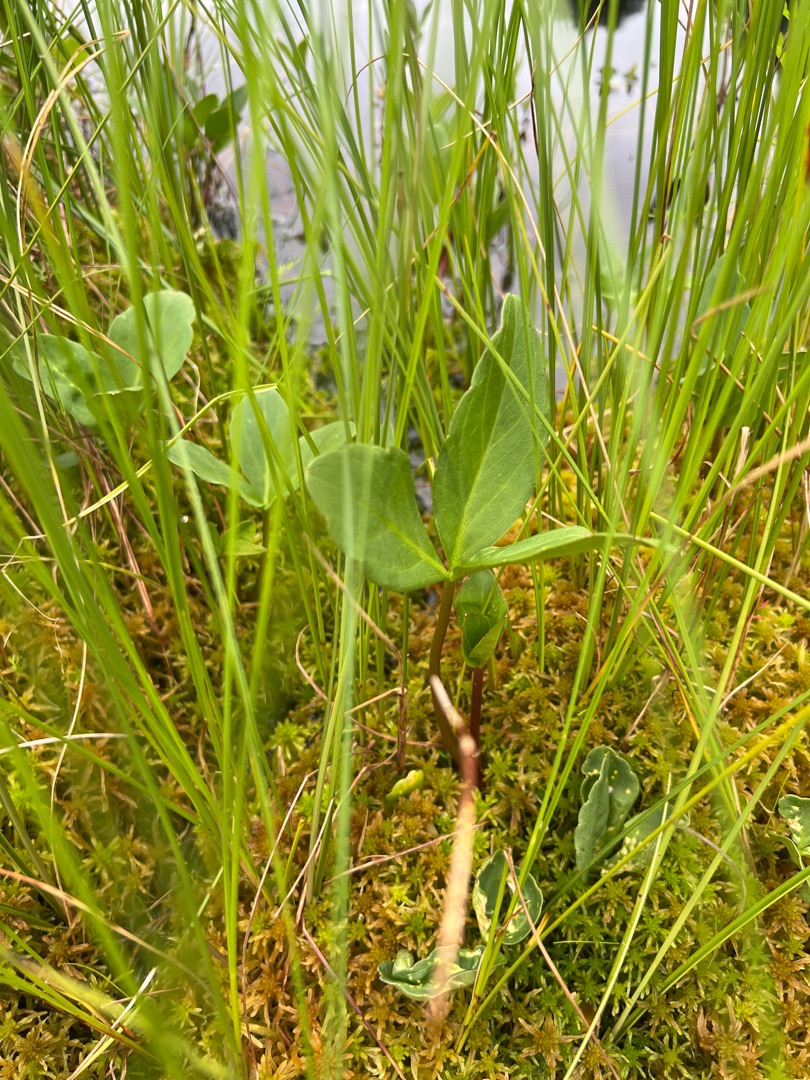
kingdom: Plantae
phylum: Tracheophyta
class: Magnoliopsida
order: Asterales
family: Menyanthaceae
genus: Menyanthes
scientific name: Menyanthes trifoliata
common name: Bukkeblad
